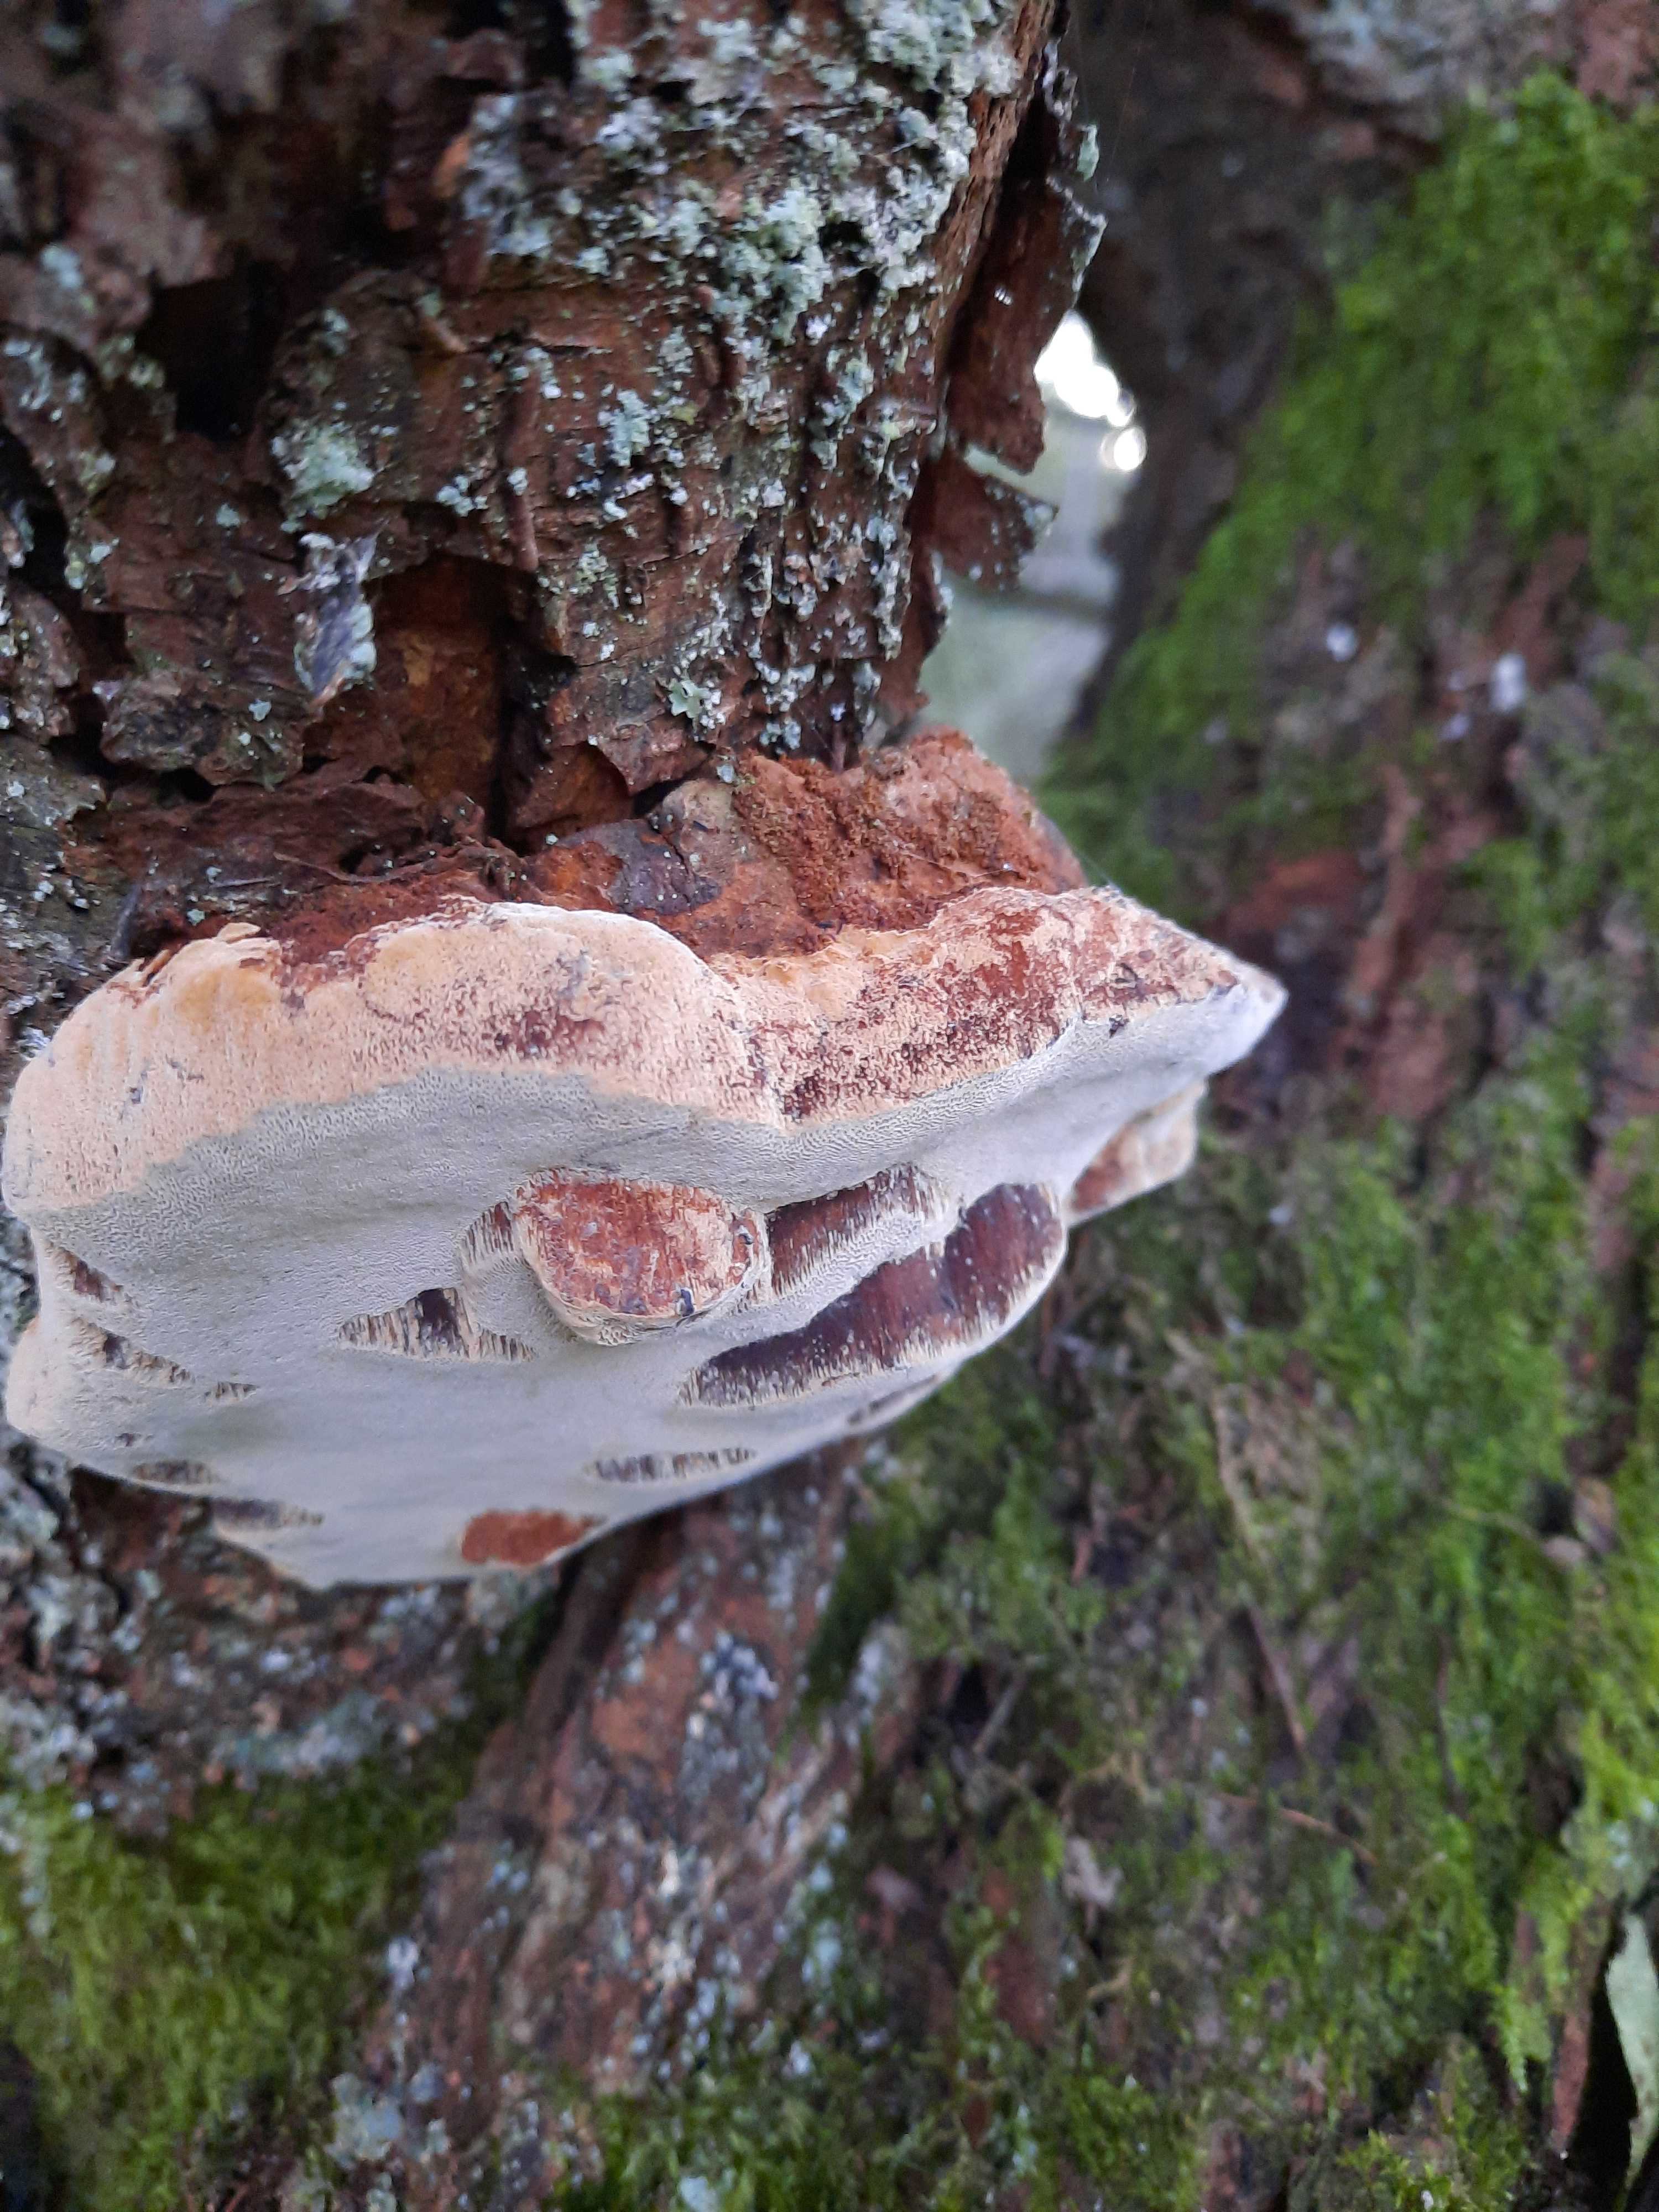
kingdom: Fungi
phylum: Basidiomycota
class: Agaricomycetes
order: Hymenochaetales
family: Hymenochaetaceae
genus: Phellinus
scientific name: Phellinus pomaceus
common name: blomme-ildporesvamp
